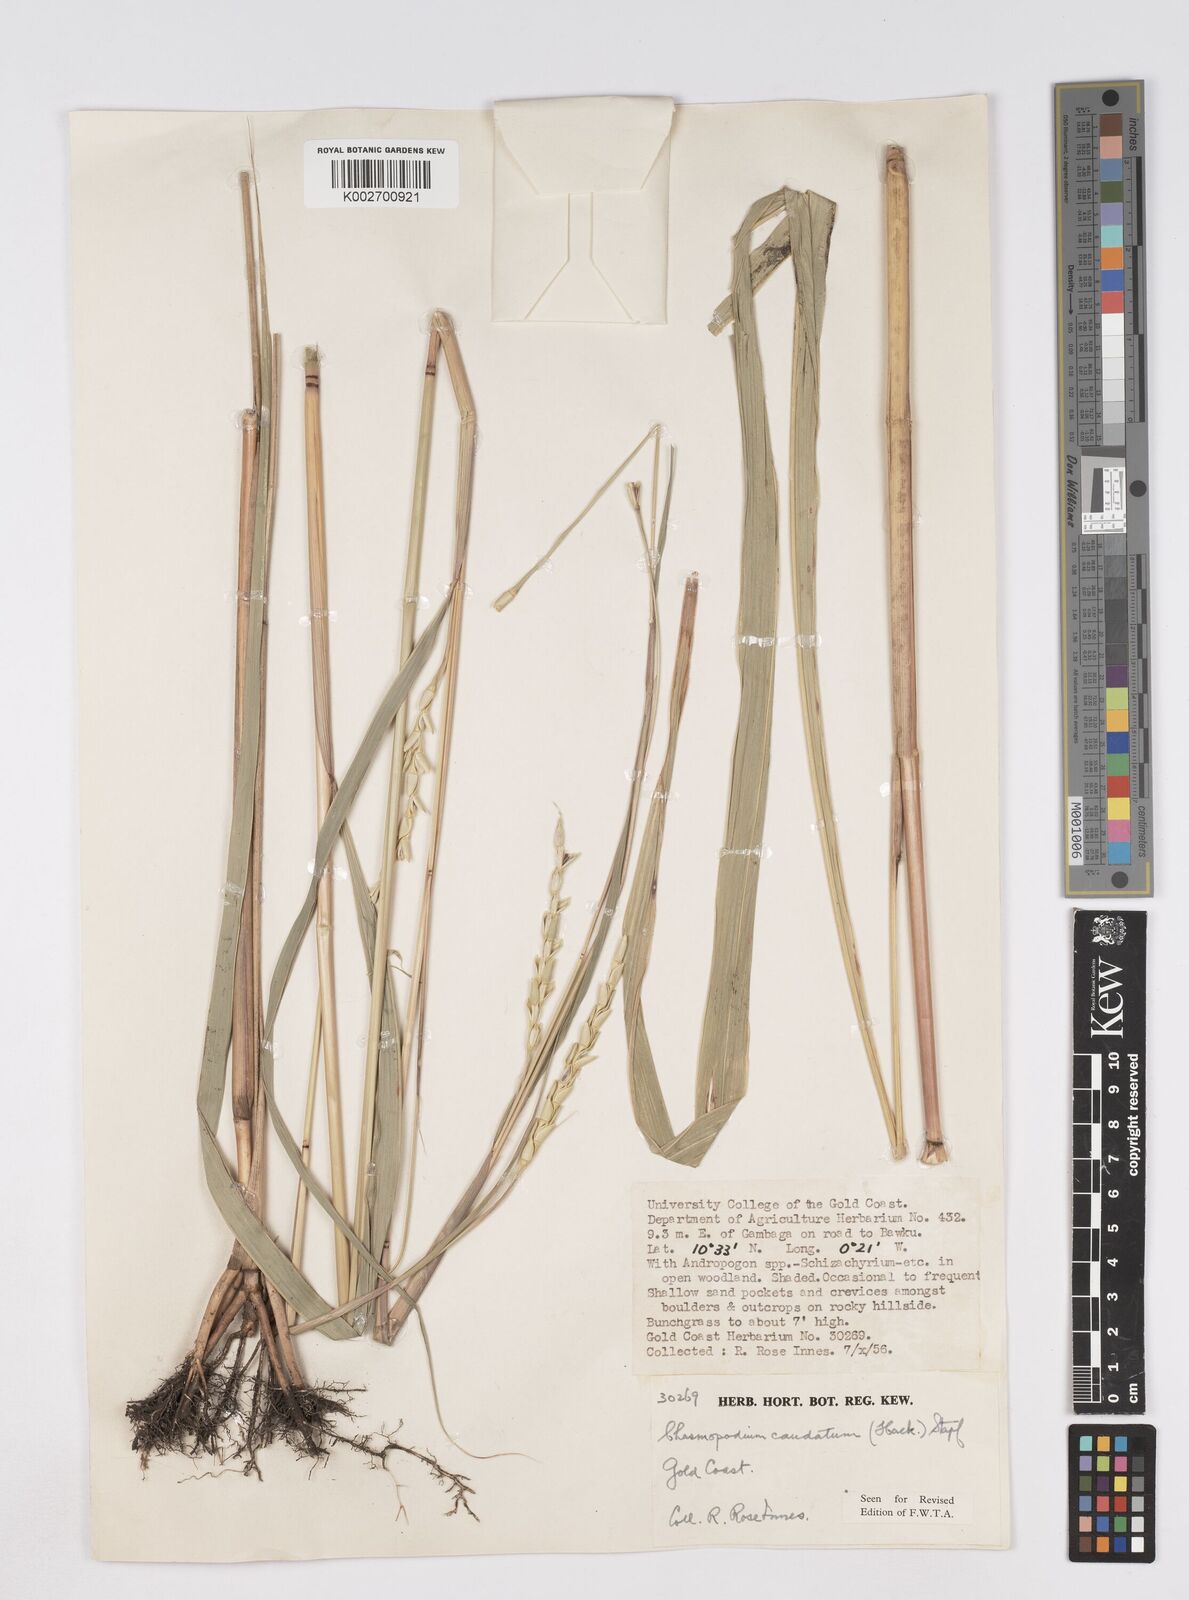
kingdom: Plantae
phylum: Tracheophyta
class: Liliopsida
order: Poales
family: Poaceae
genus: Chasmopodium
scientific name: Chasmopodium caudatum
